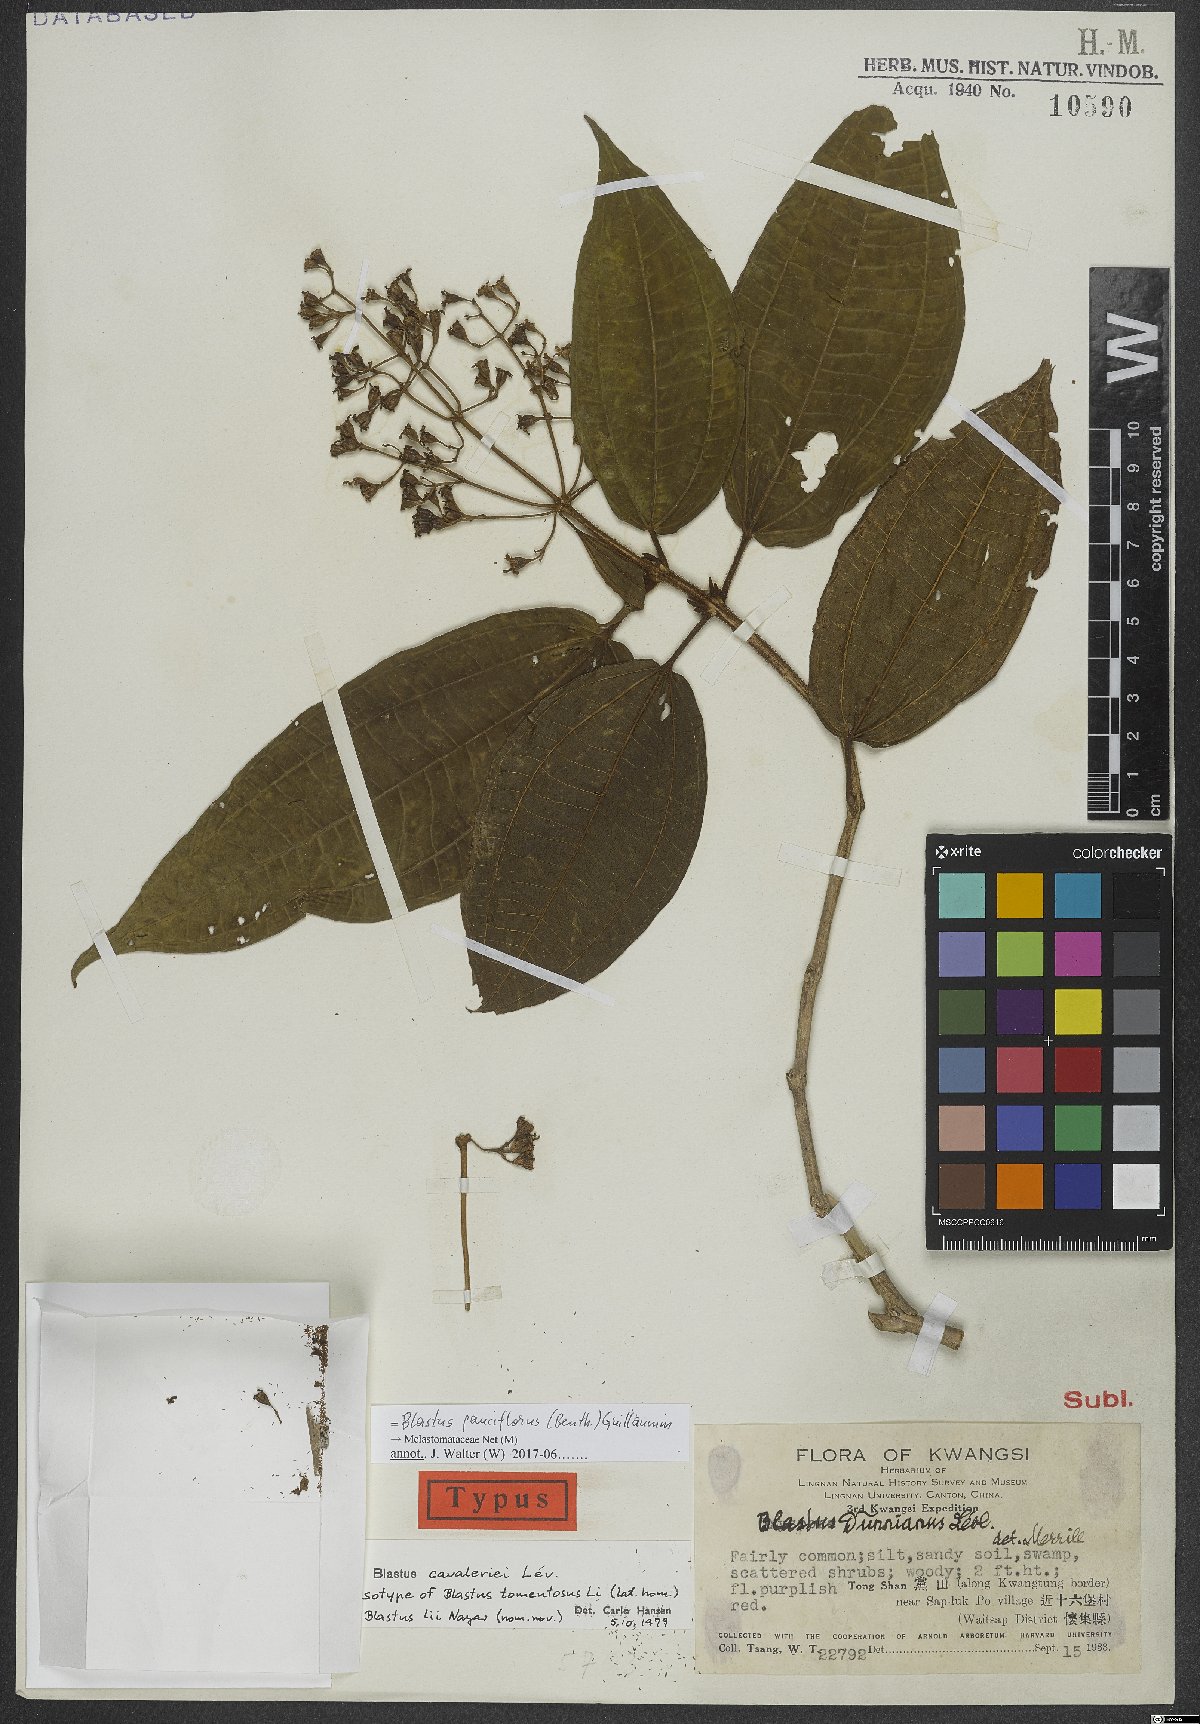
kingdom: Plantae
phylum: Tracheophyta
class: Magnoliopsida
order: Myrtales
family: Melastomataceae
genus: Blastus
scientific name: Blastus pauciflorus
